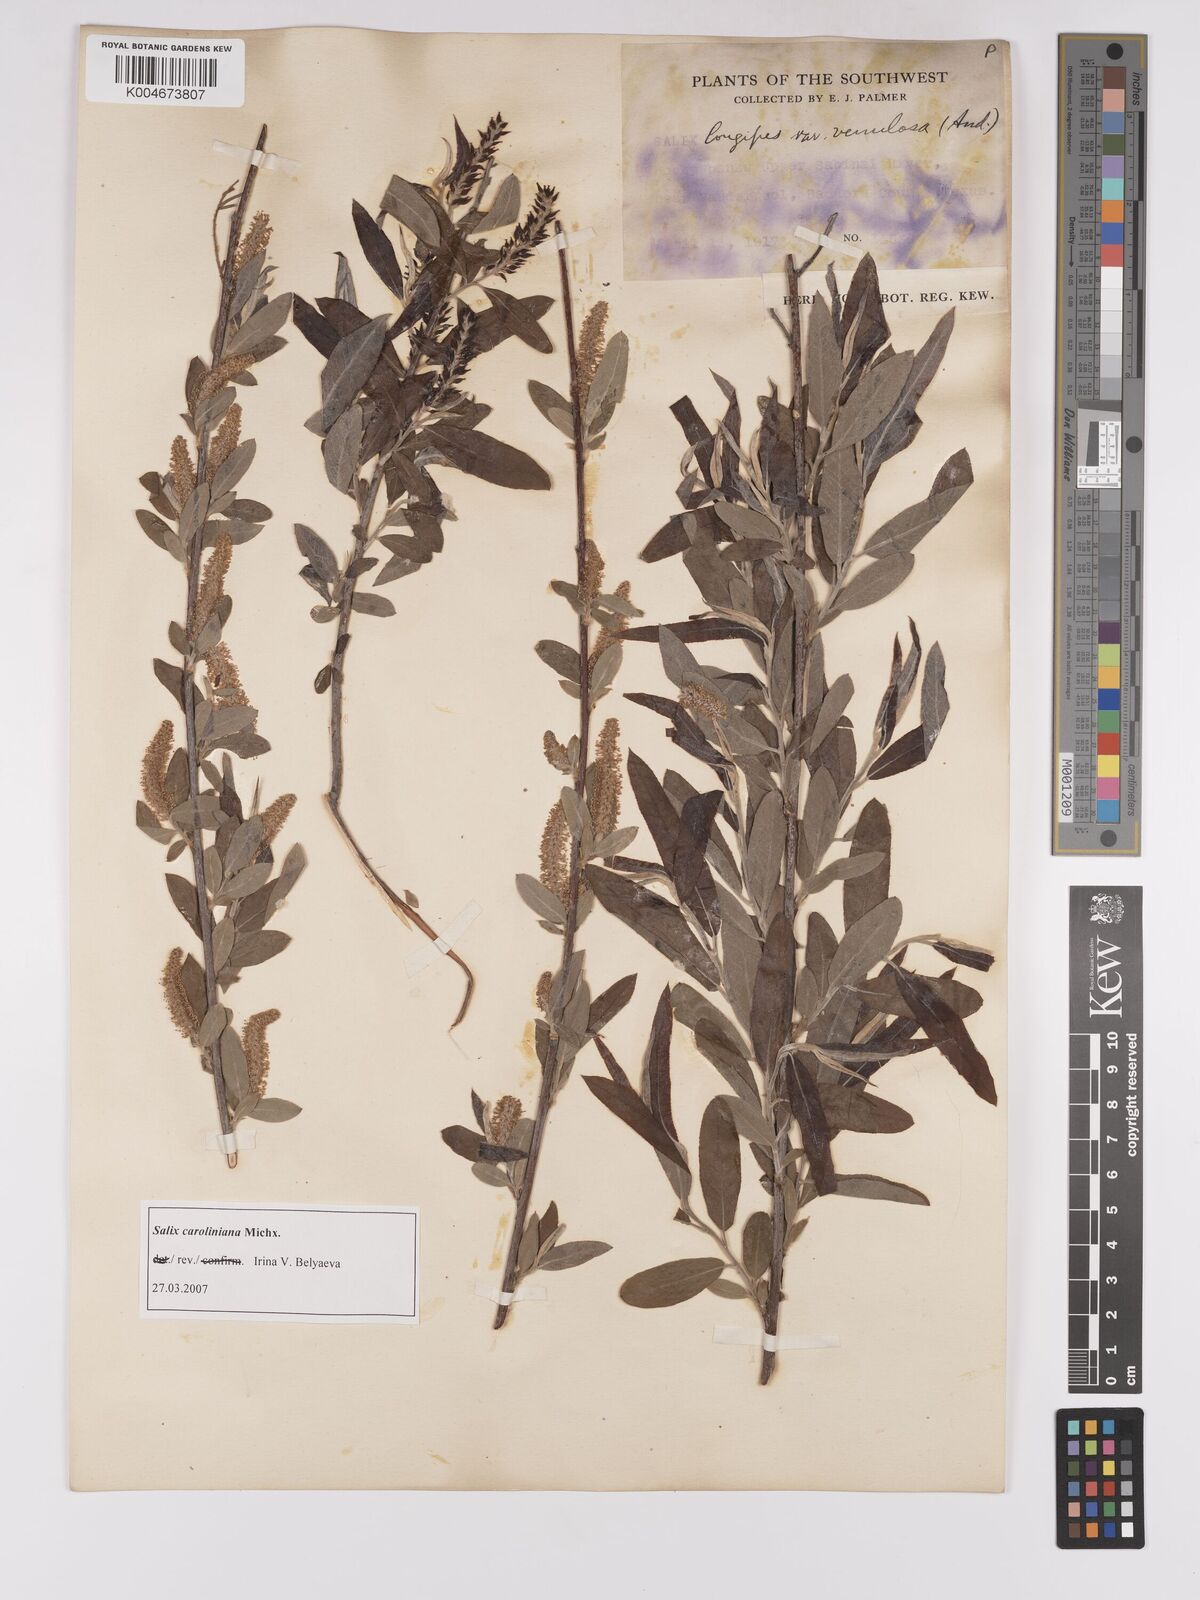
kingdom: Plantae
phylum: Tracheophyta
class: Magnoliopsida
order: Malpighiales
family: Salicaceae
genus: Salix
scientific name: Salix caroliniana
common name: Carolina willow
